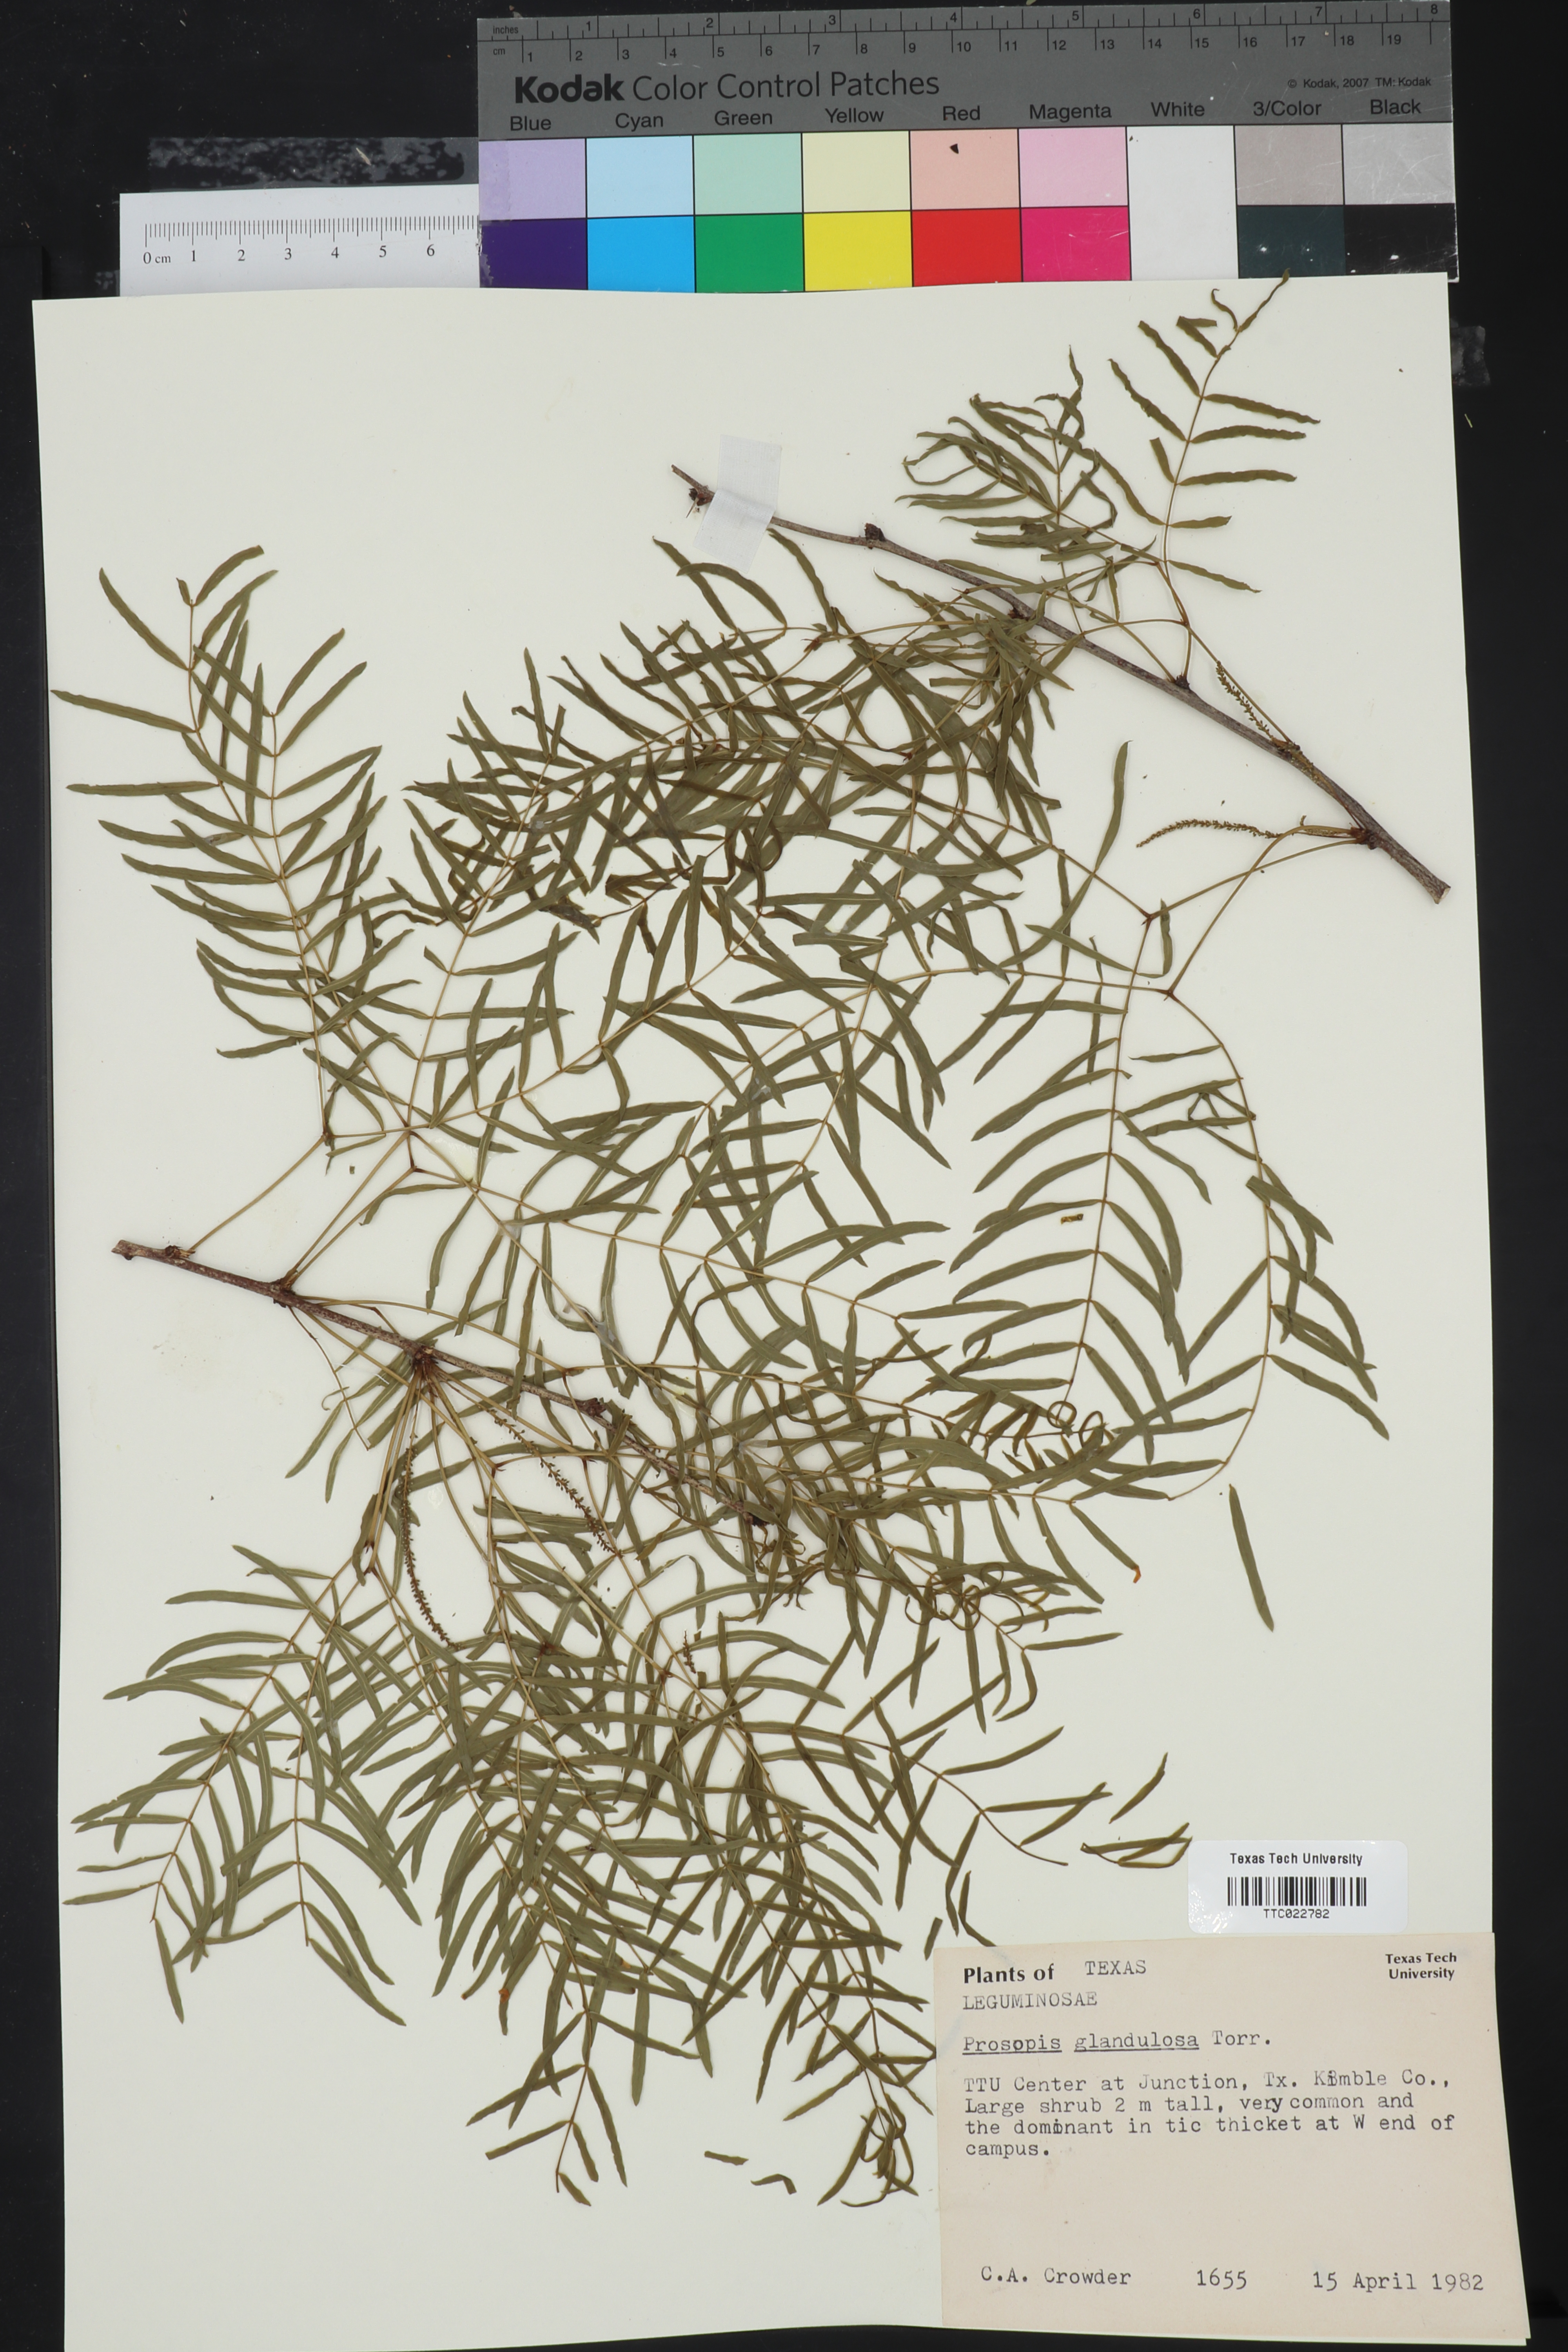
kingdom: Plantae
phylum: Tracheophyta
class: Magnoliopsida
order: Fabales
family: Fabaceae
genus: Prosopis
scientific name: Prosopis glandulosa
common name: Honey mesquite
